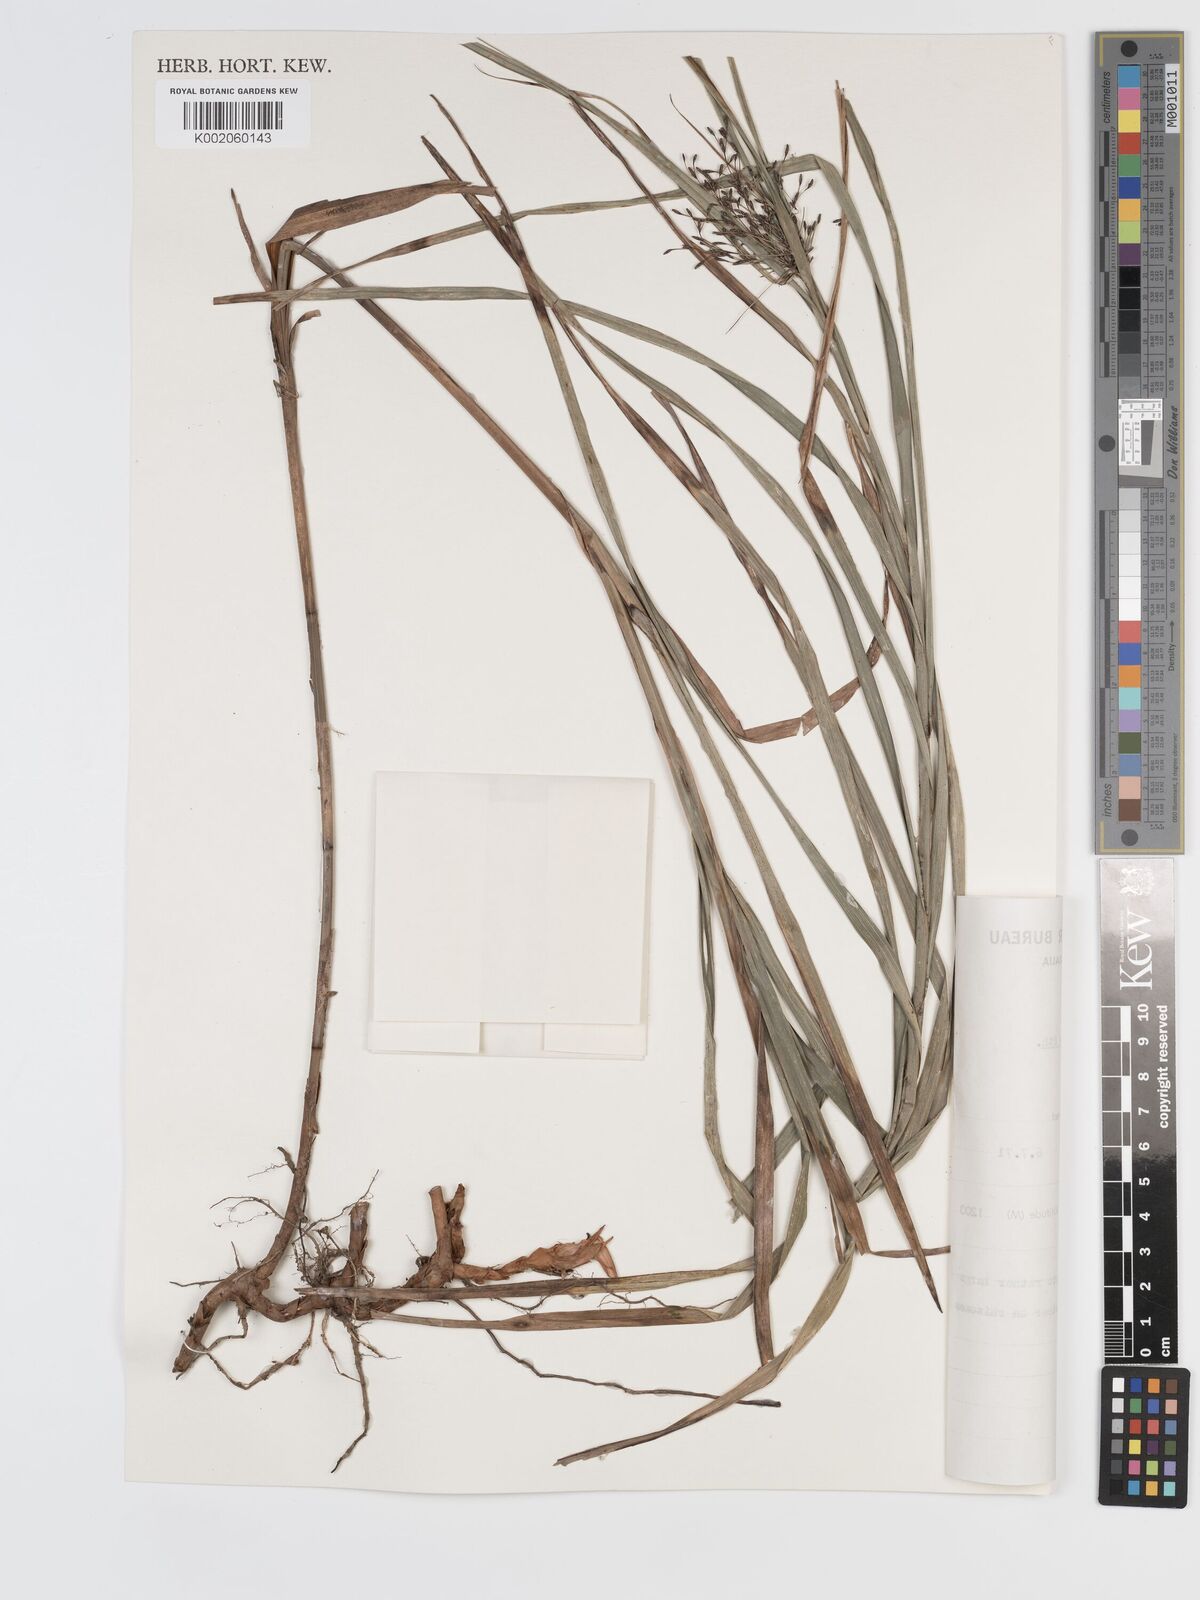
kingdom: Plantae
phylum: Tracheophyta
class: Liliopsida
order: Poales
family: Cyperaceae
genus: Exocarya
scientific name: Exocarya sclerioides
